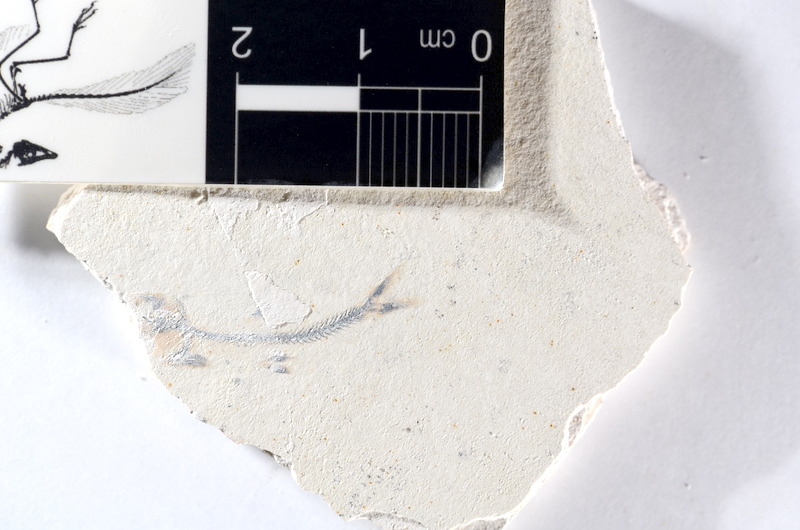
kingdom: Animalia
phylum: Chordata
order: Salmoniformes
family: Orthogonikleithridae
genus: Orthogonikleithrus
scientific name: Orthogonikleithrus hoelli
